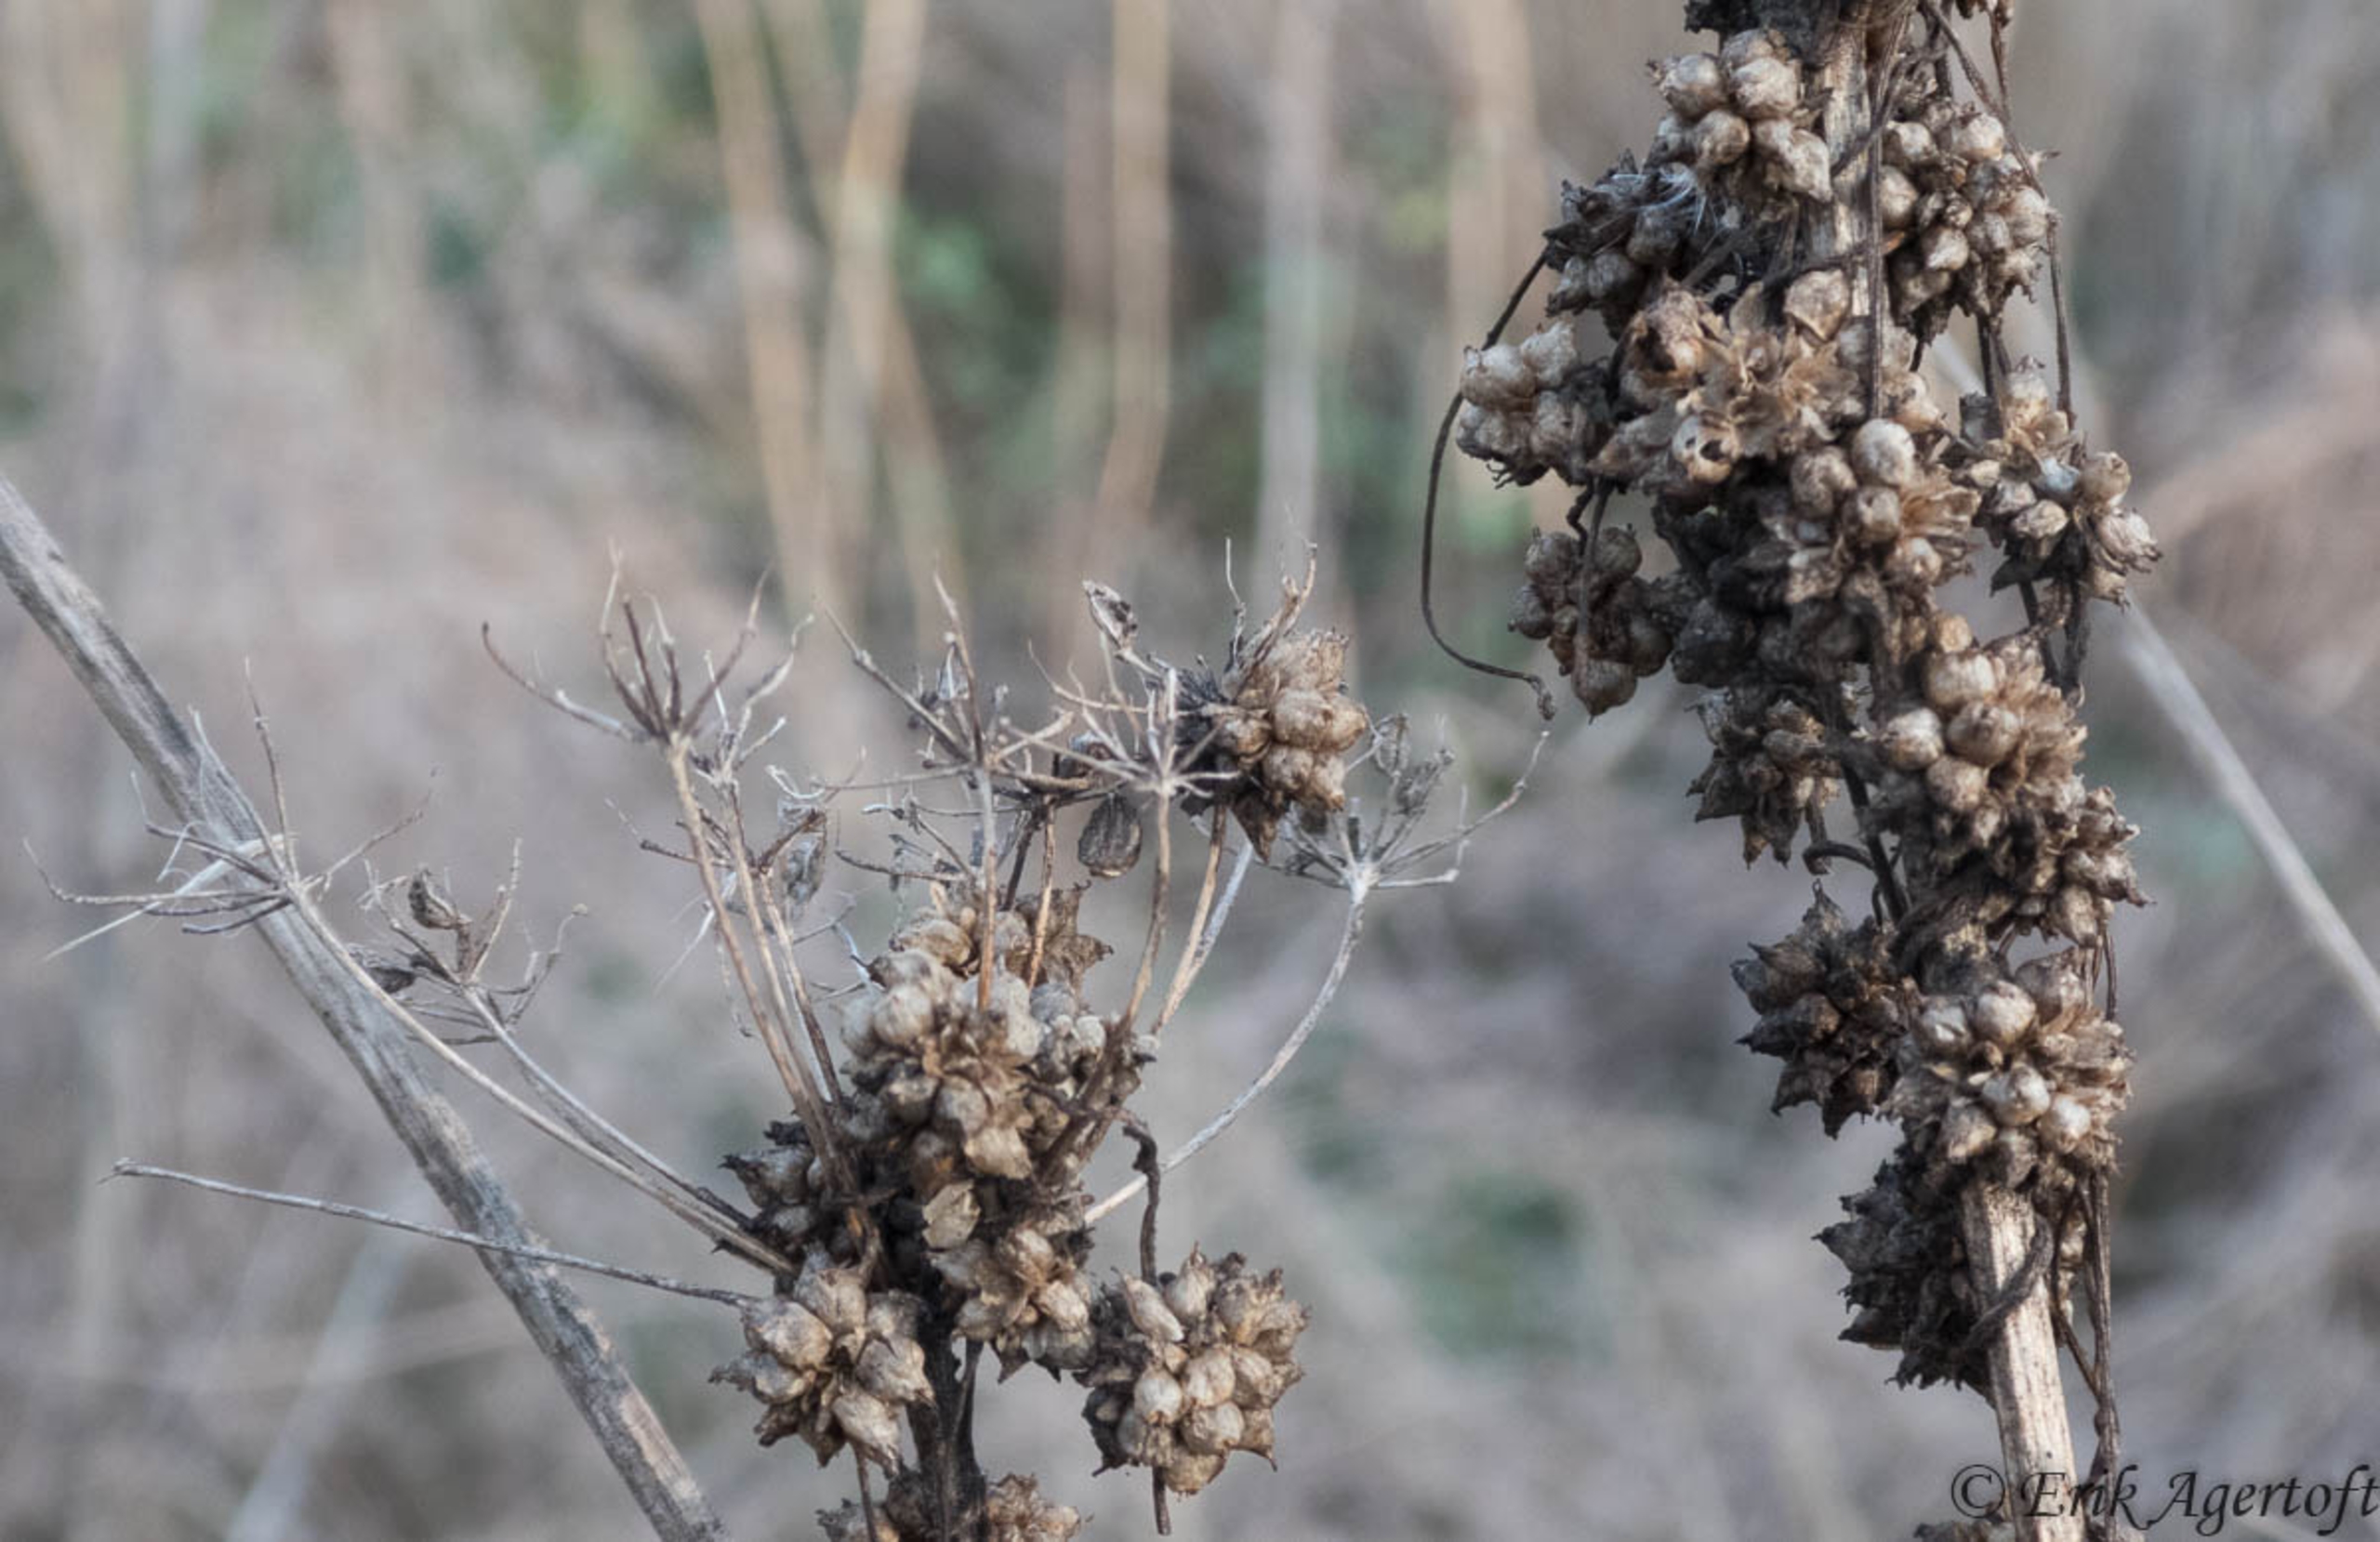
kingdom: Plantae
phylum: Tracheophyta
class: Magnoliopsida
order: Solanales
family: Convolvulaceae
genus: Cuscuta
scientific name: Cuscuta europaea
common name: Nælde-silke
